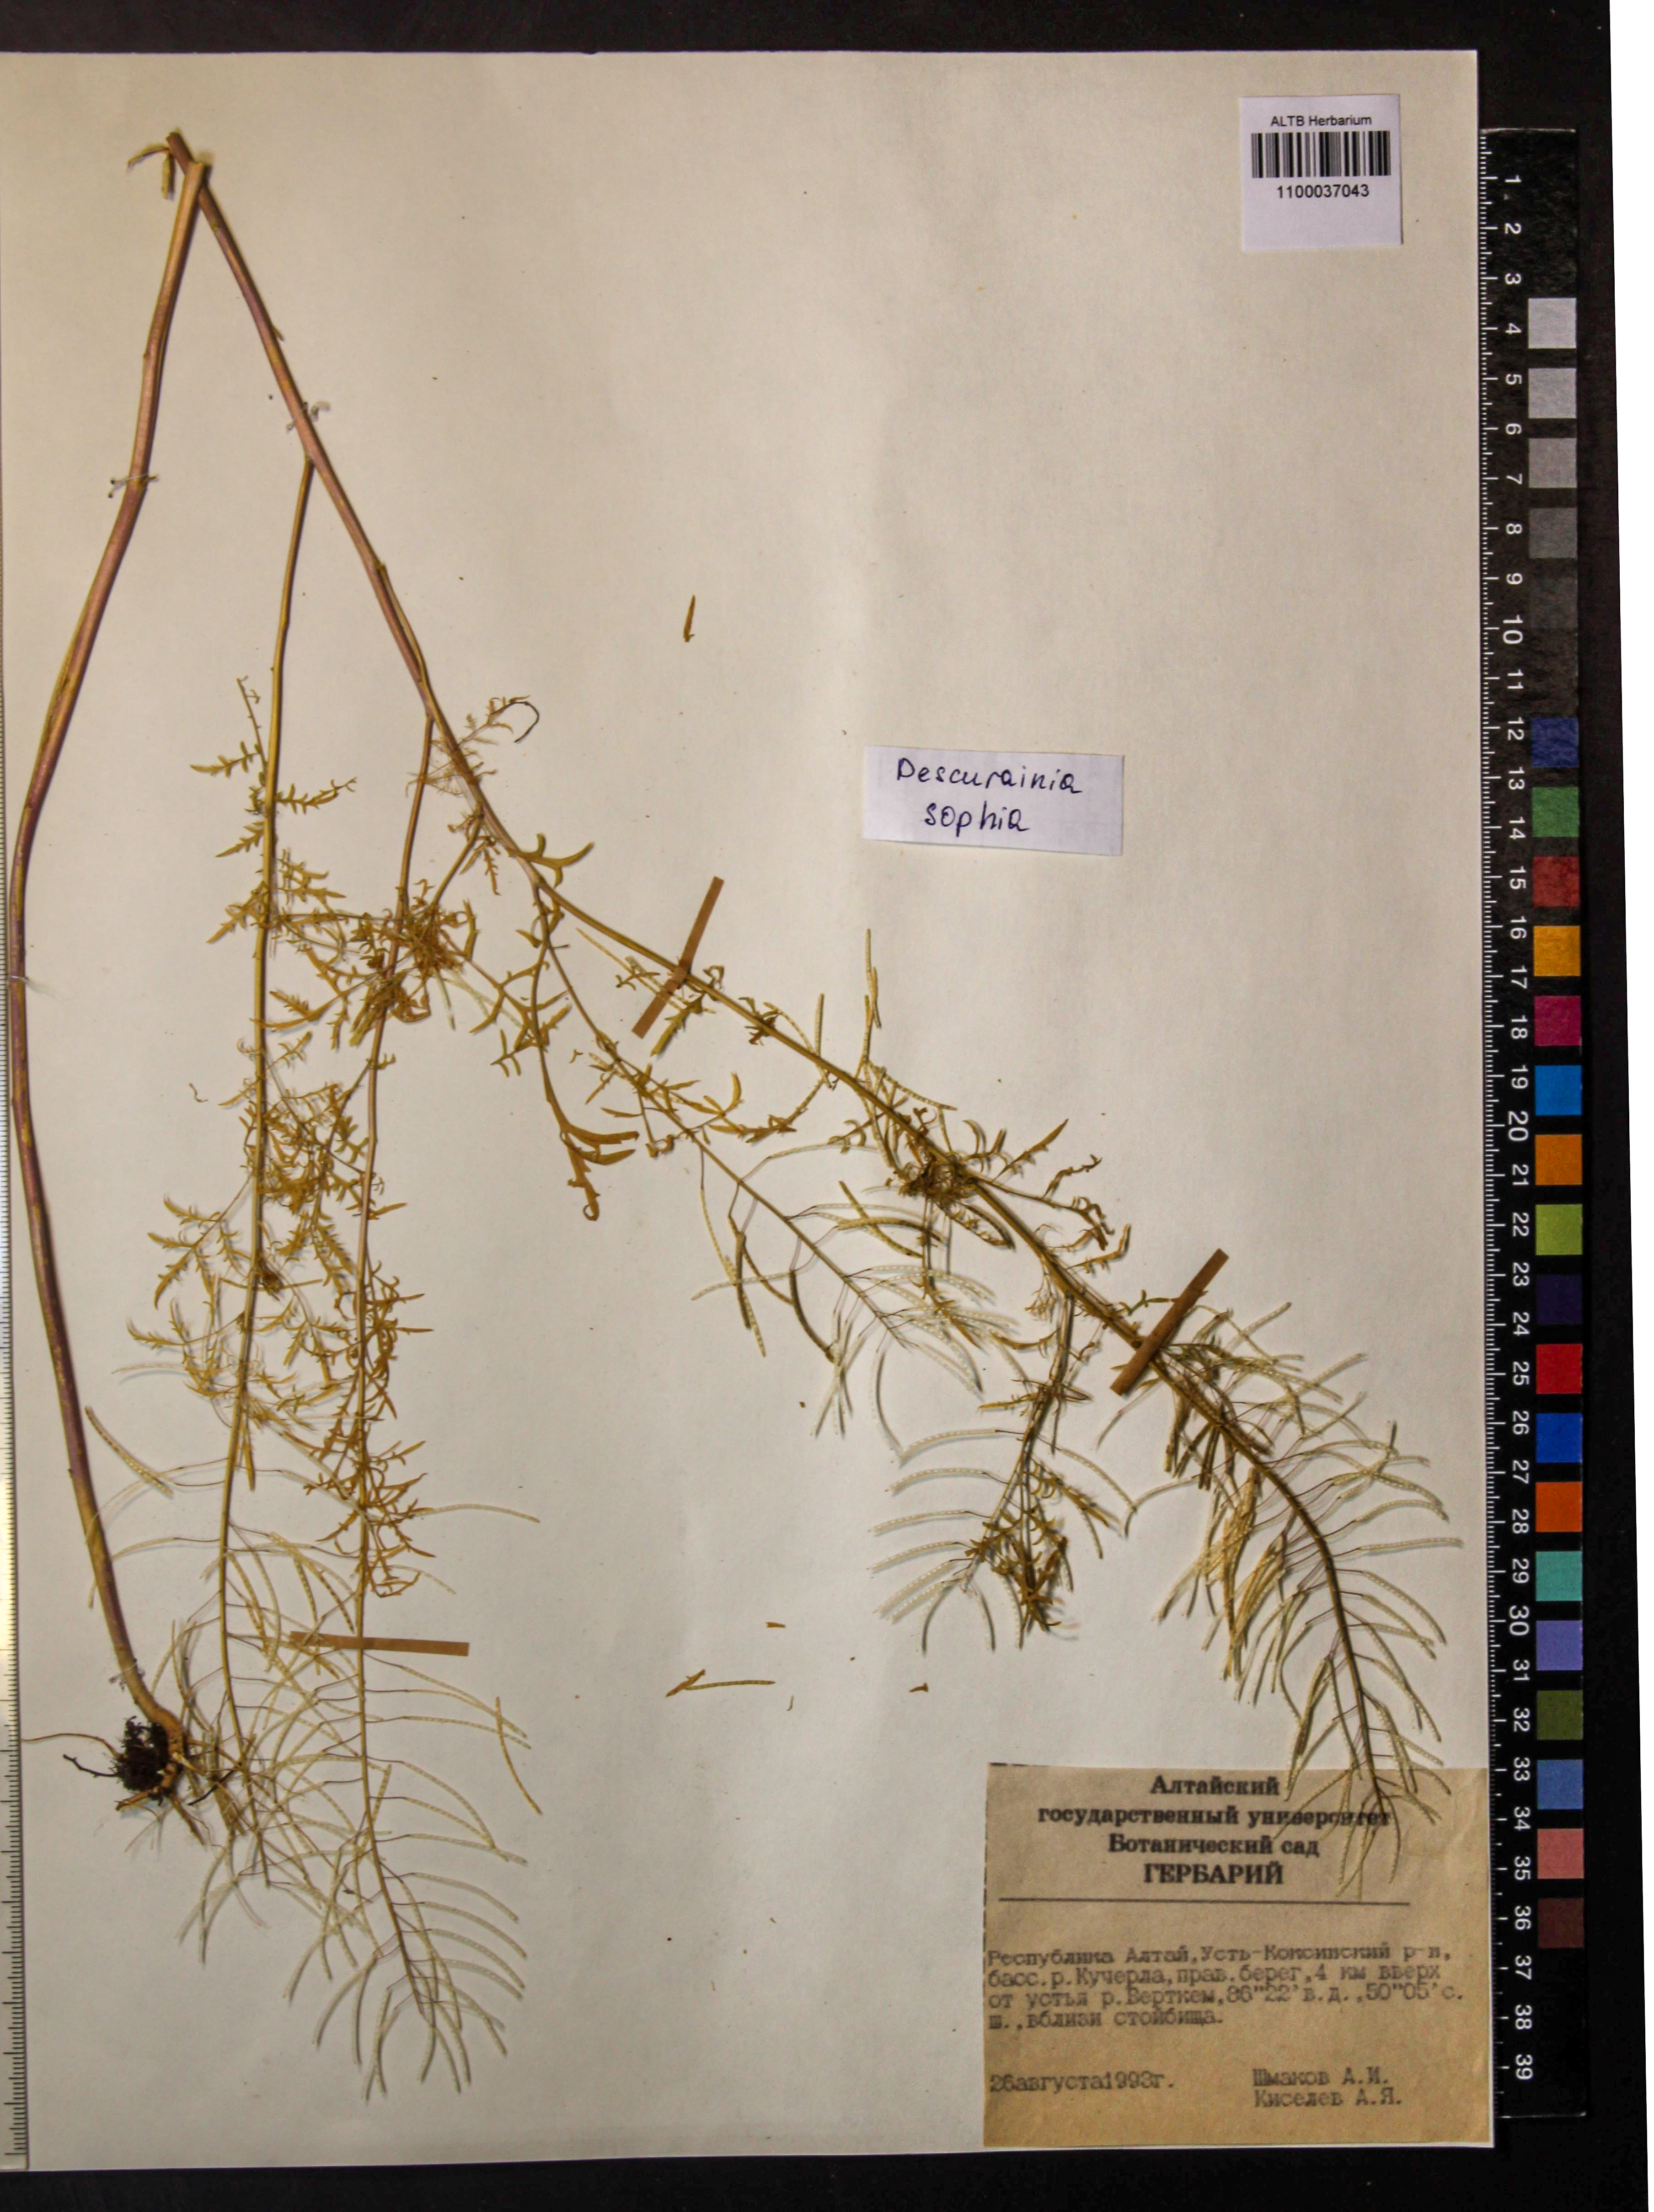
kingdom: Plantae
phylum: Tracheophyta
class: Magnoliopsida
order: Brassicales
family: Brassicaceae
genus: Descurainia
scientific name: Descurainia sophia
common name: Flixweed
